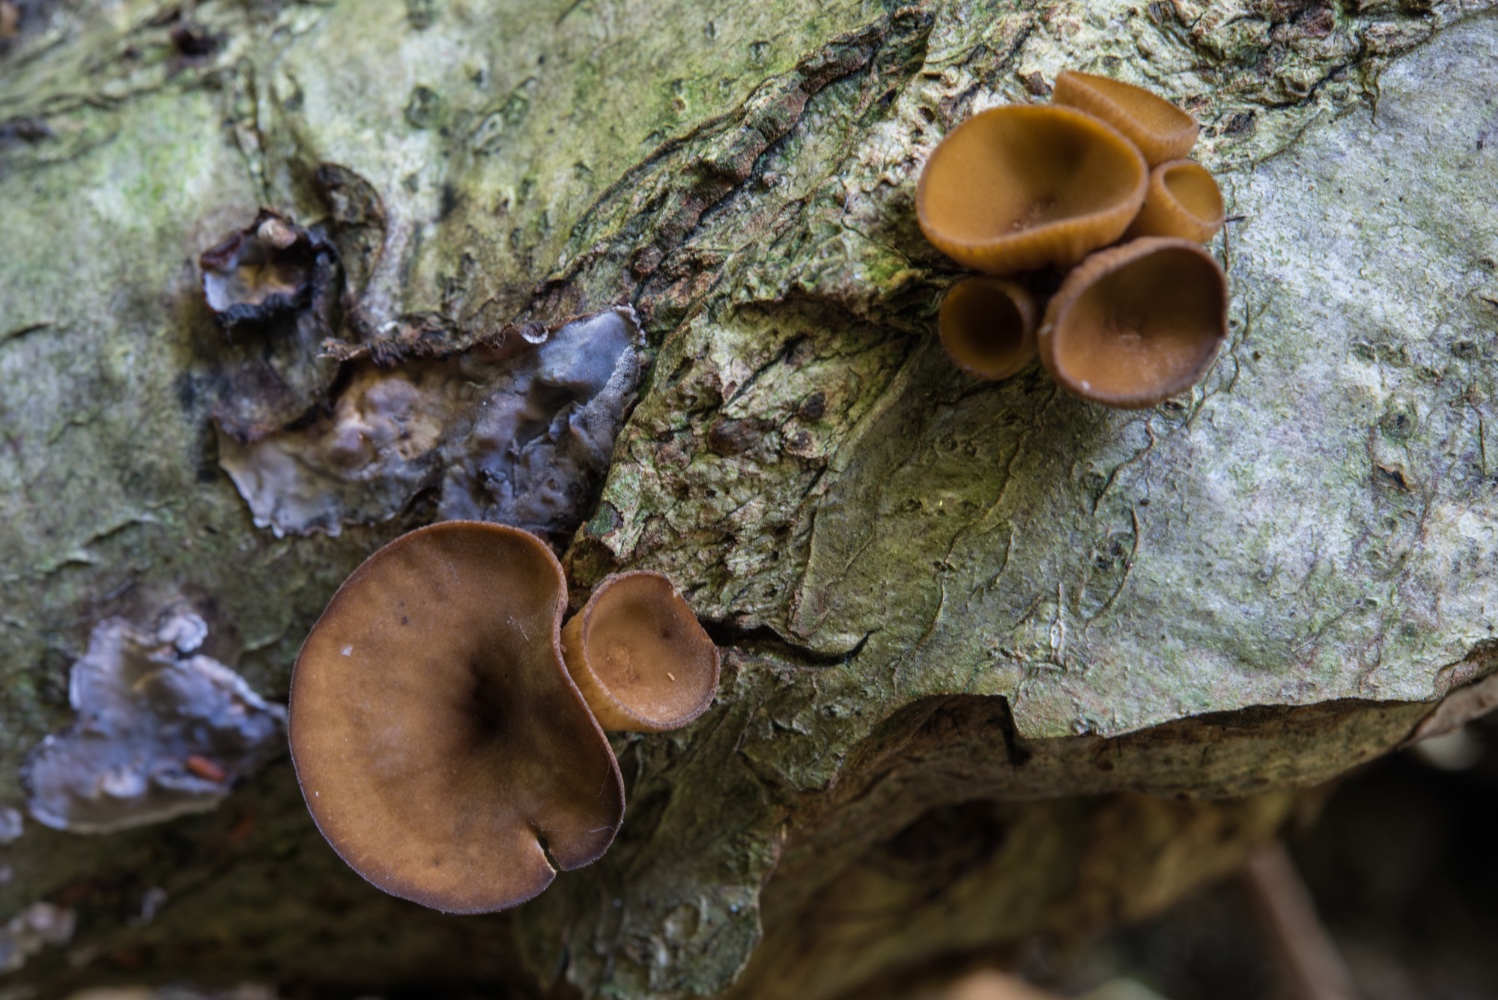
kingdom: Fungi
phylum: Ascomycota
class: Leotiomycetes
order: Helotiales
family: Rutstroemiaceae
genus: Rutstroemia
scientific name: Rutstroemia firma
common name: gren-brunskive
